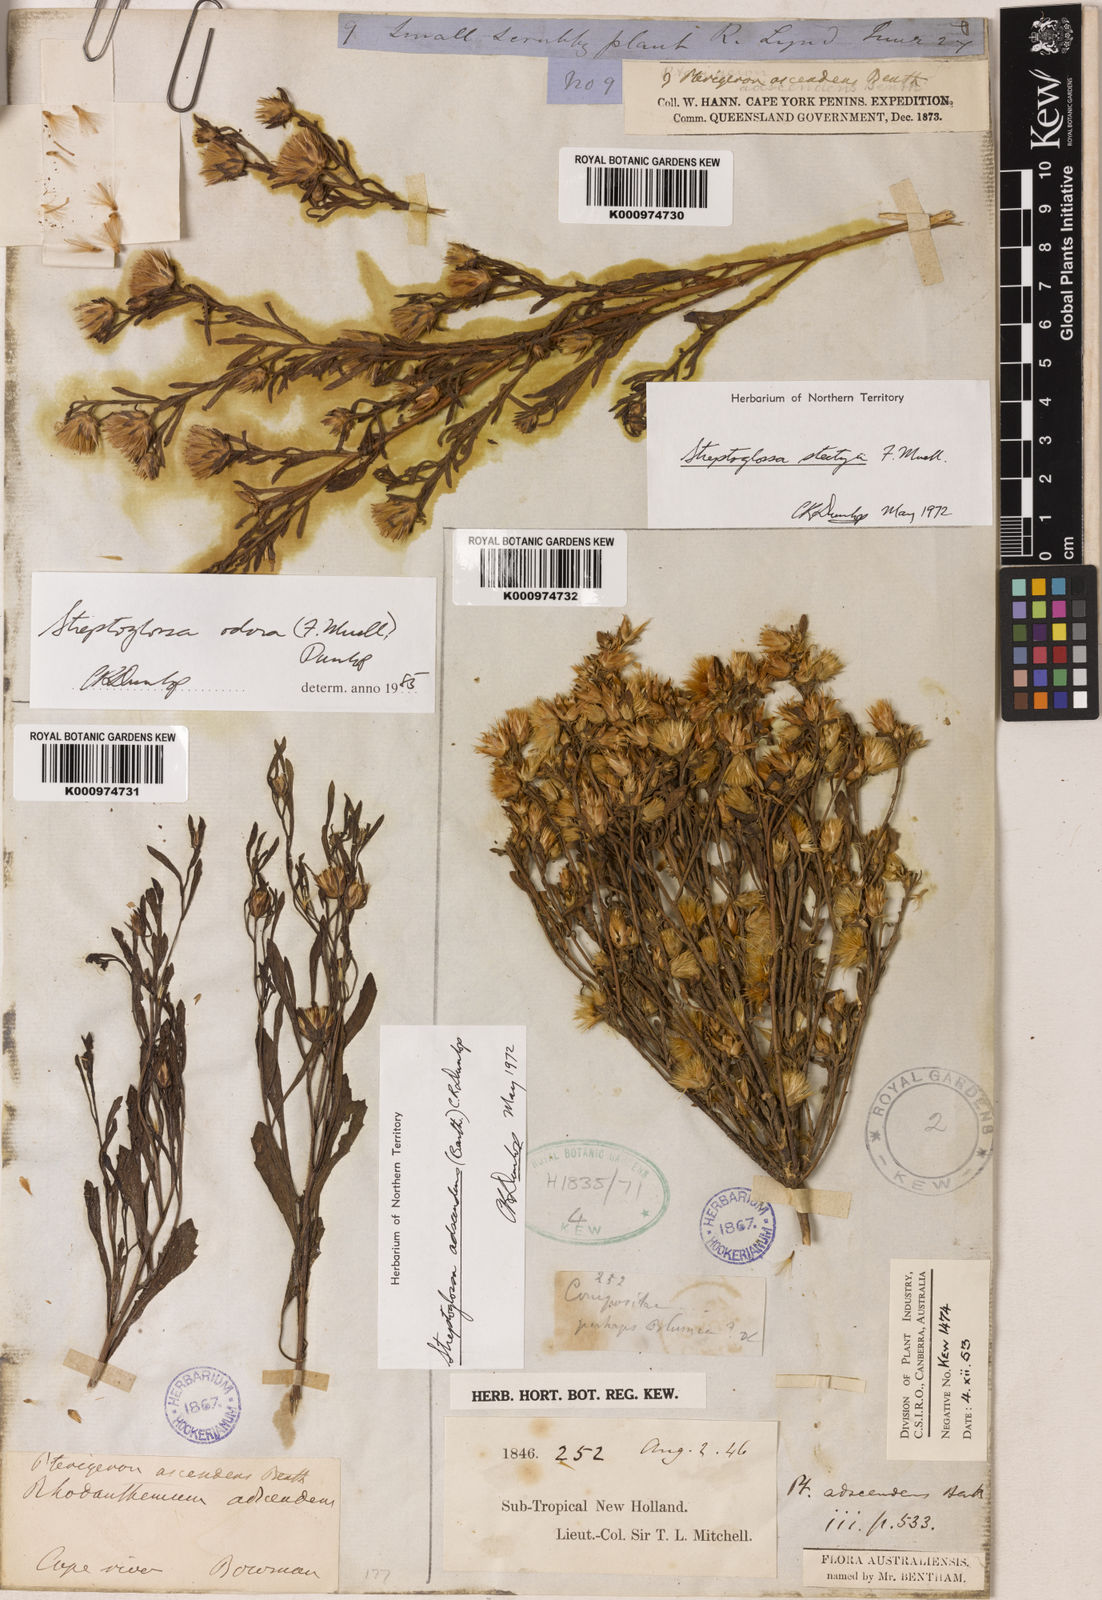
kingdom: Plantae
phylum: Tracheophyta
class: Magnoliopsida
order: Asterales
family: Asteraceae
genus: Streptoglossa
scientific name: Streptoglossa adscendens
